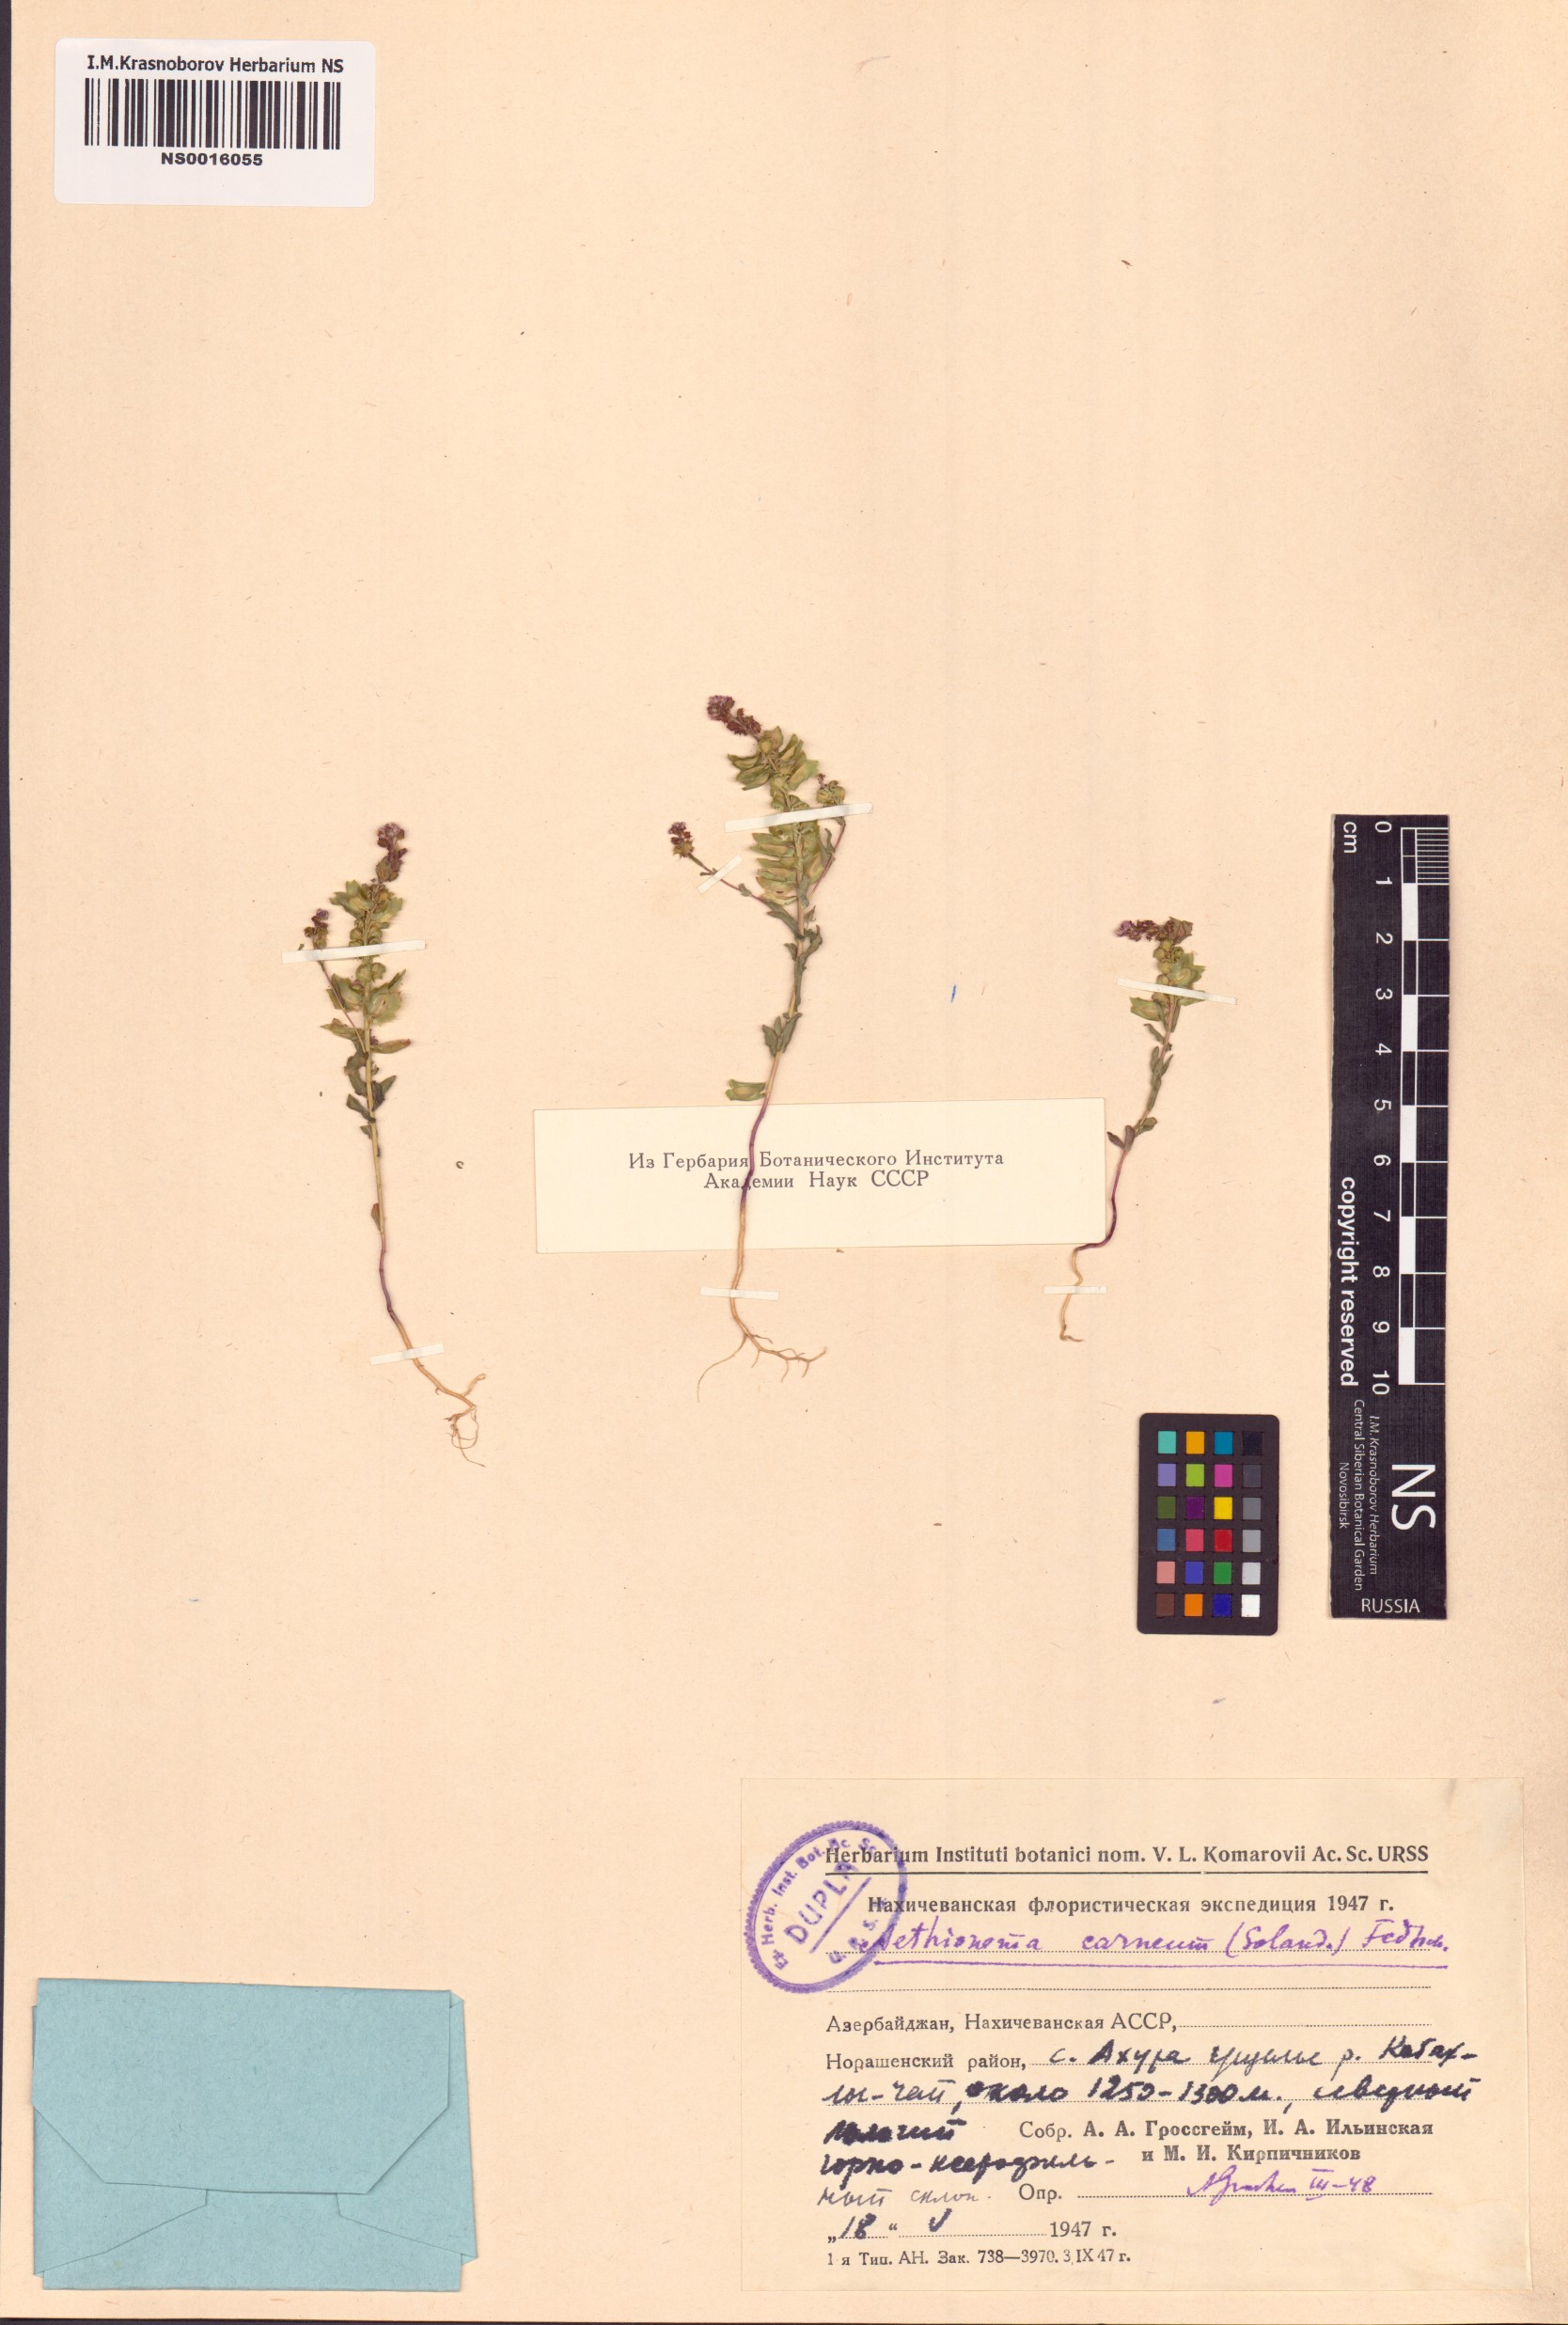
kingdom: Plantae
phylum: Tracheophyta
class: Magnoliopsida
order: Brassicales
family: Brassicaceae
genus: Aethionema
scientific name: Aethionema carneum
